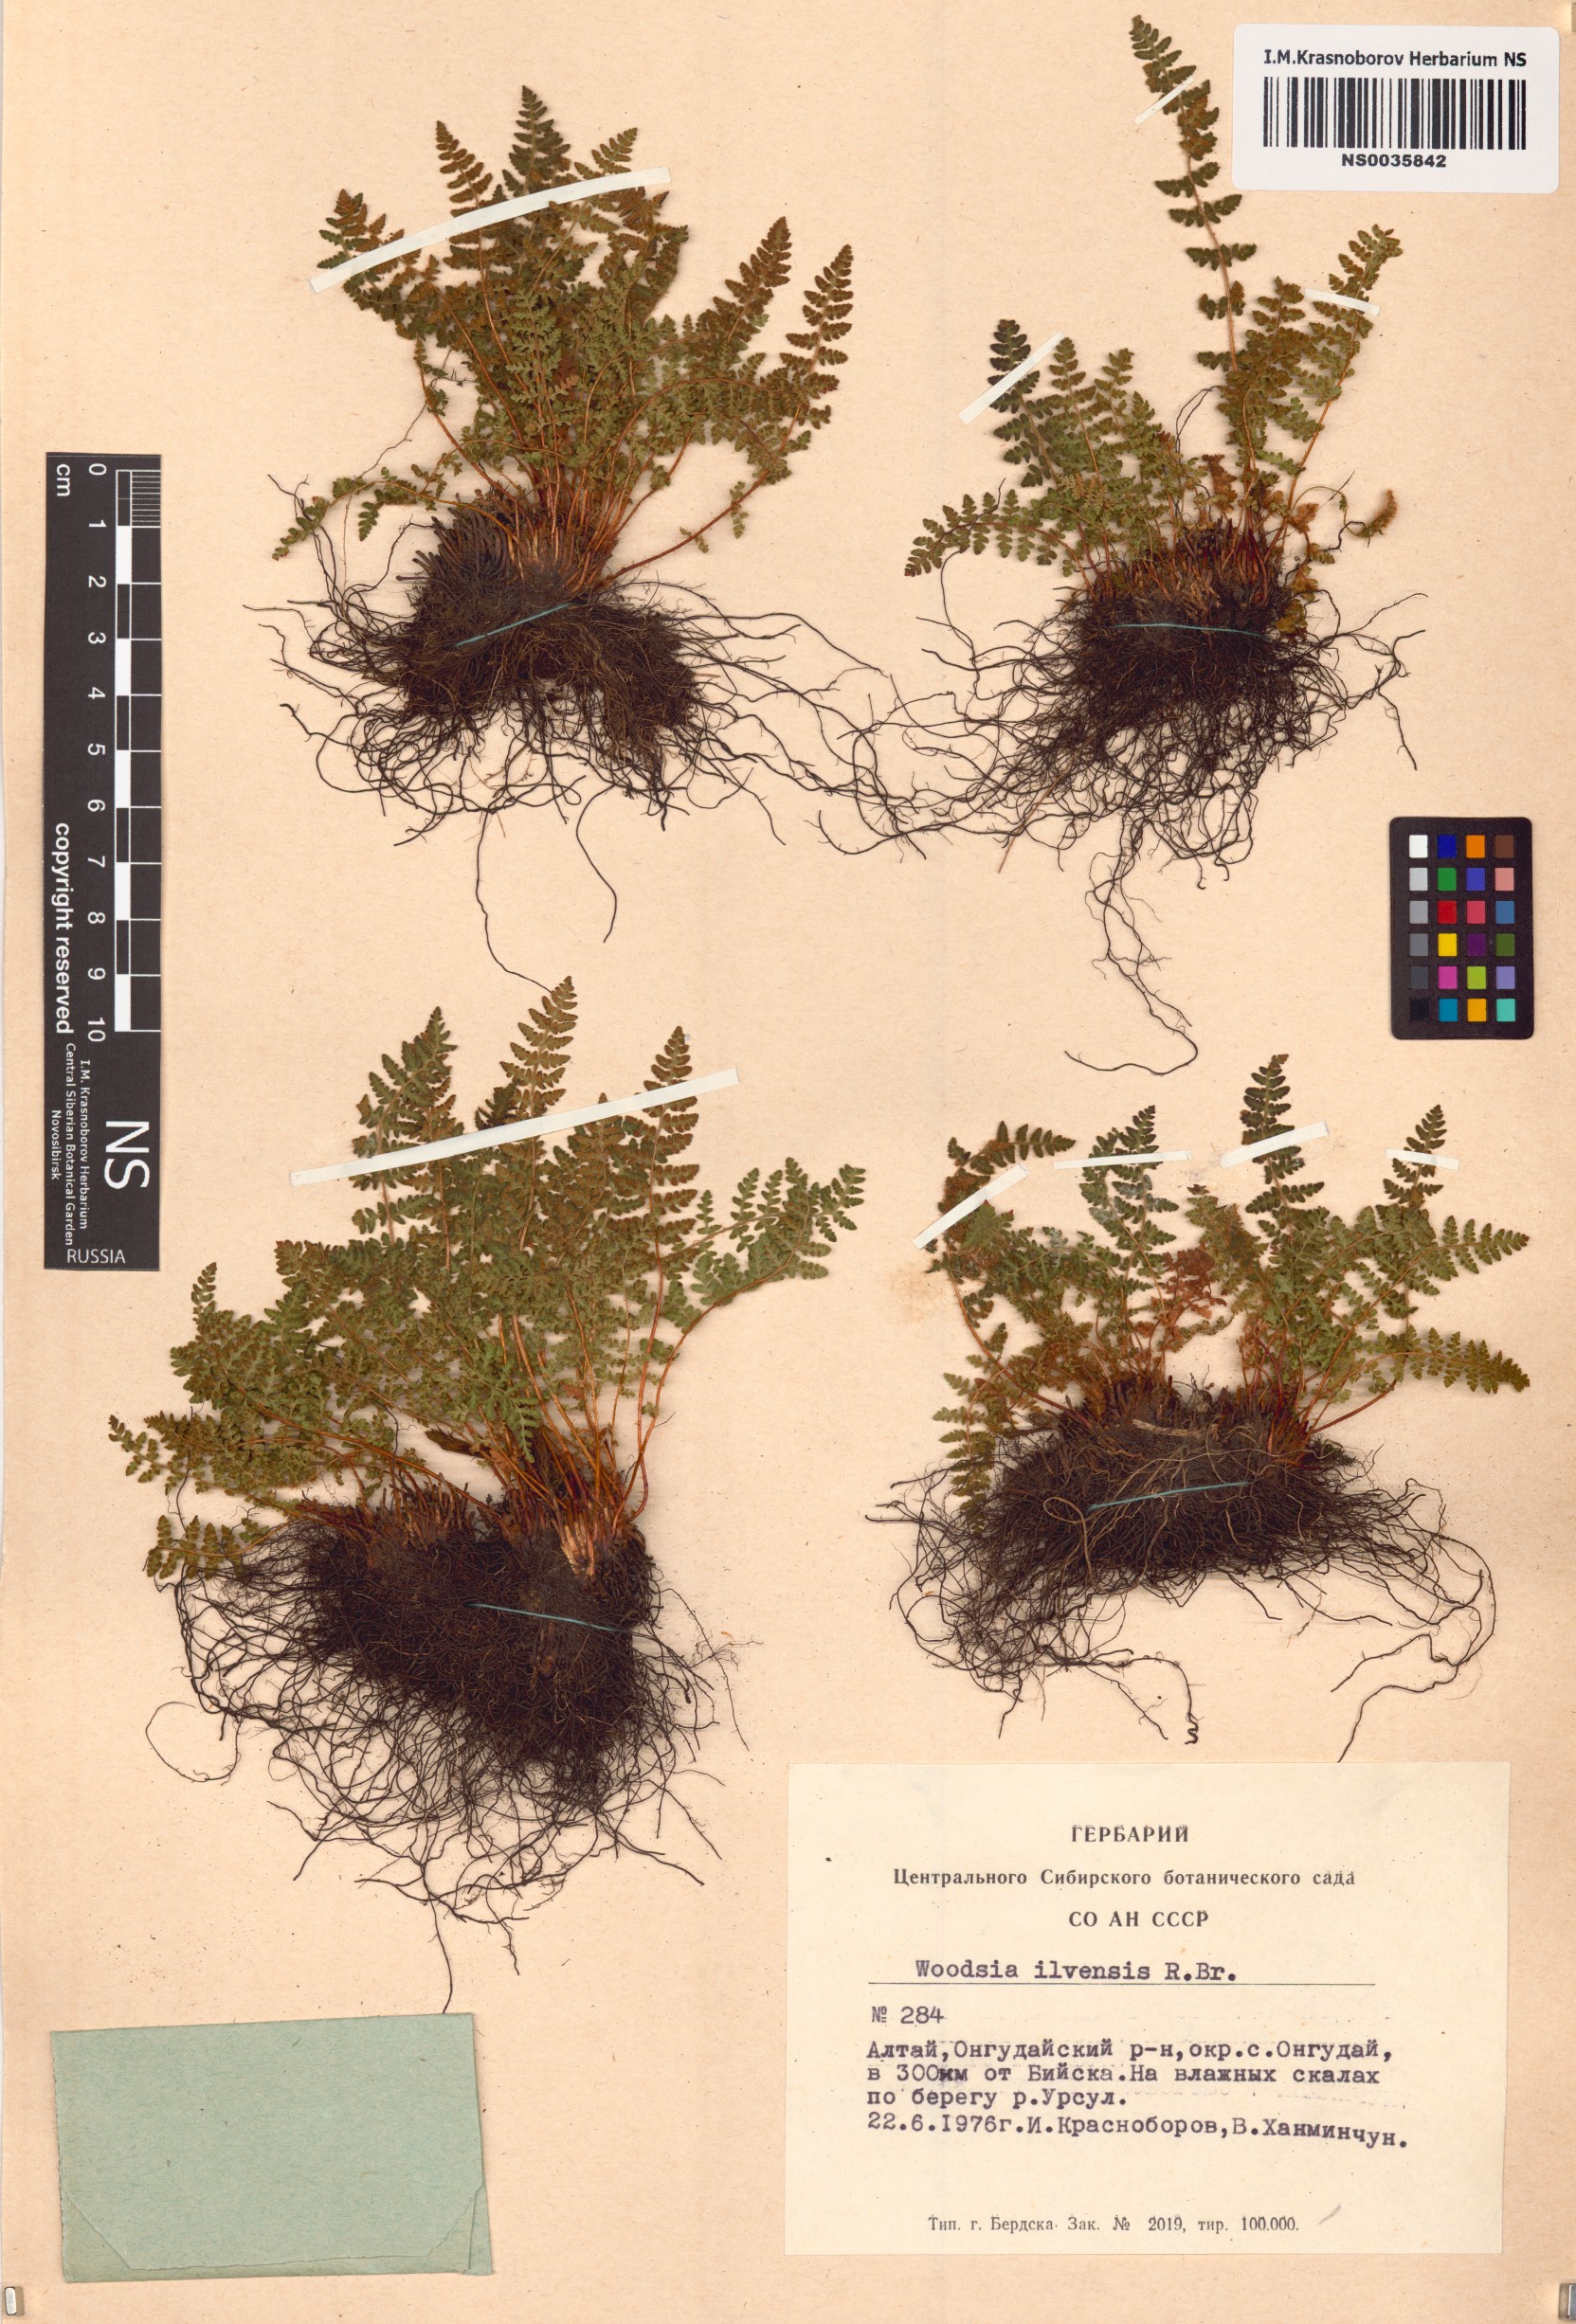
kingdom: Plantae
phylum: Tracheophyta
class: Polypodiopsida
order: Polypodiales
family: Woodsiaceae
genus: Woodsia
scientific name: Woodsia ilvensis
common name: Fragrant woodsia
